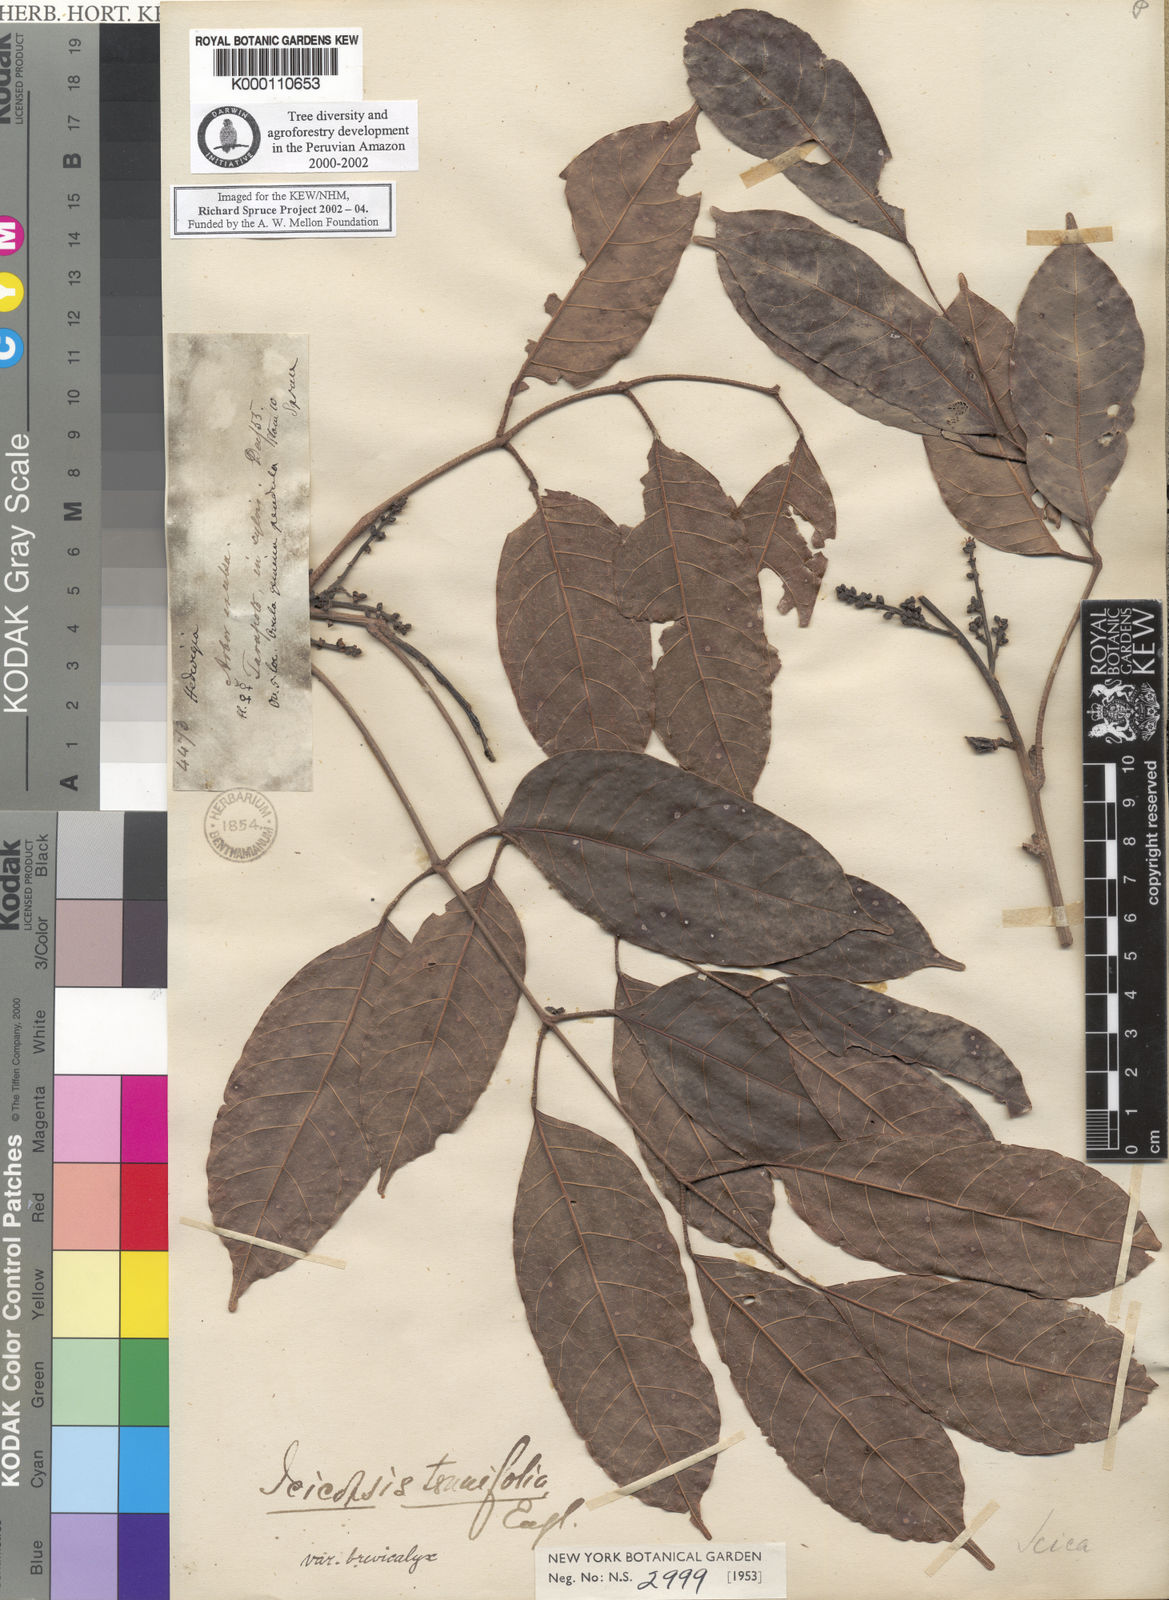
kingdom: Plantae
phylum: Tracheophyta
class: Magnoliopsida
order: Sapindales
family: Burseraceae
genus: Protium
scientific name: Protium sagotianum
